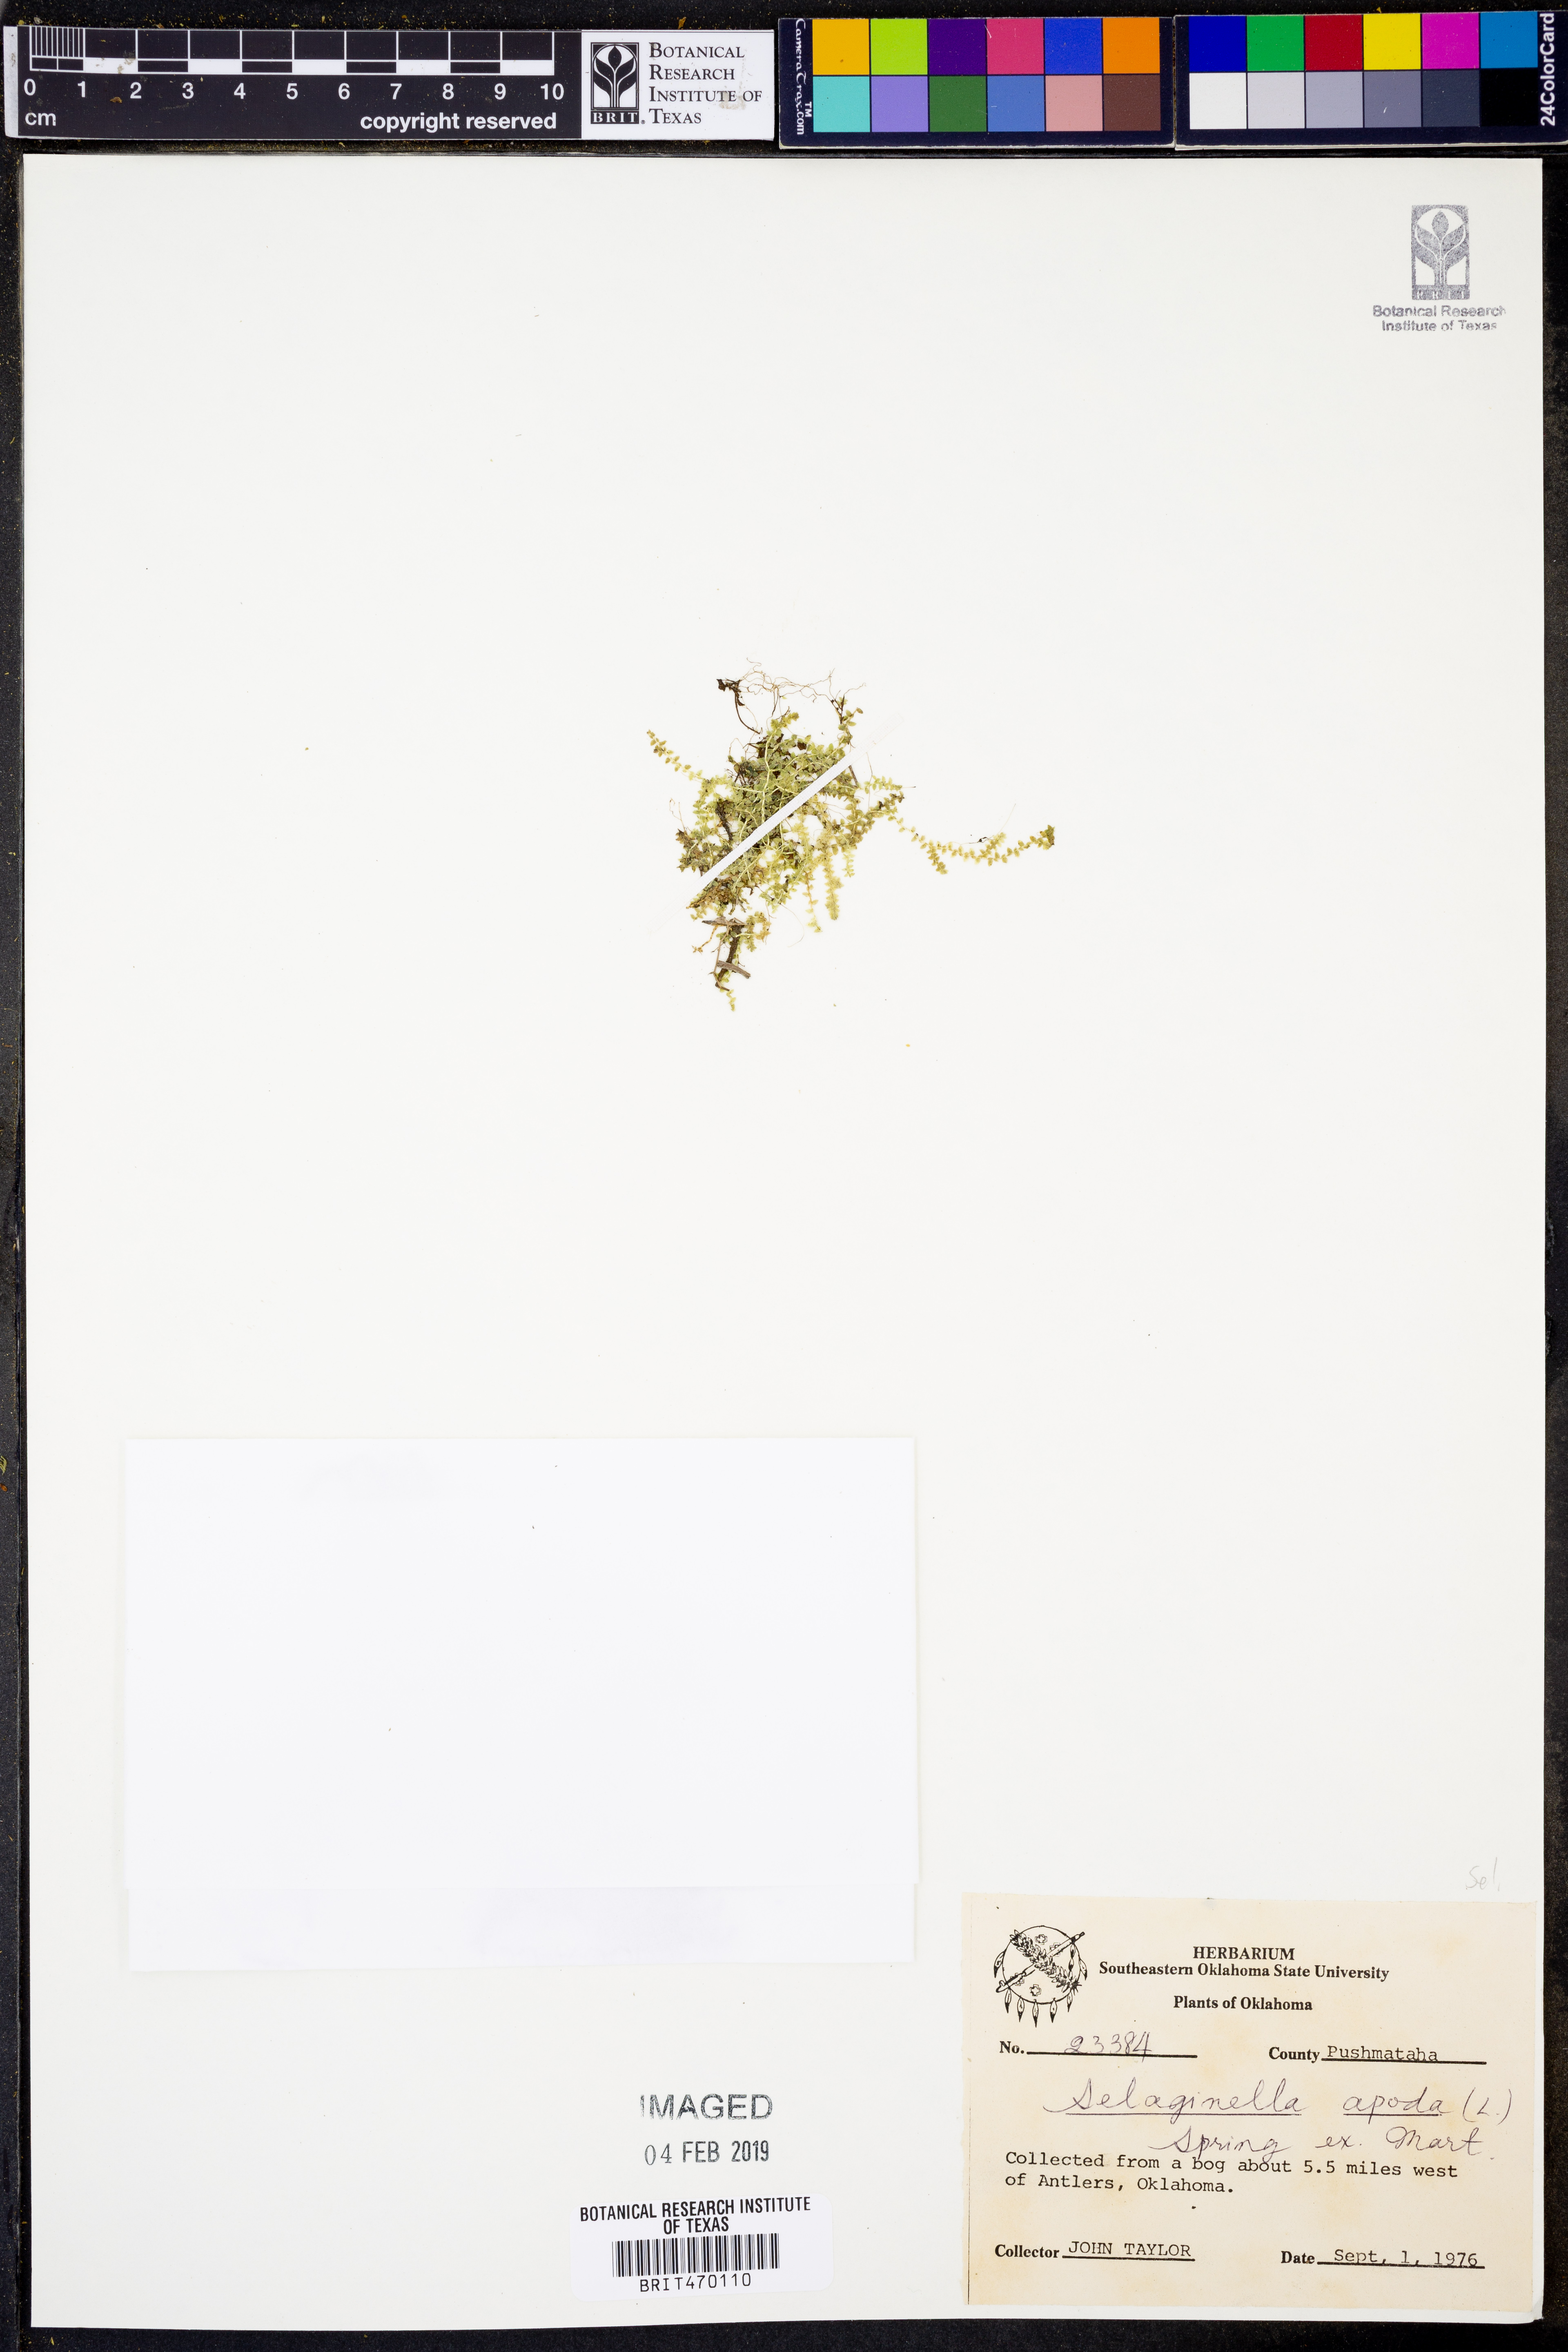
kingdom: Plantae
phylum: Tracheophyta
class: Lycopodiopsida
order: Selaginellales
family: Selaginellaceae
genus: Selaginella
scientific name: Selaginella apoda
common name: Creeping spikemoss
